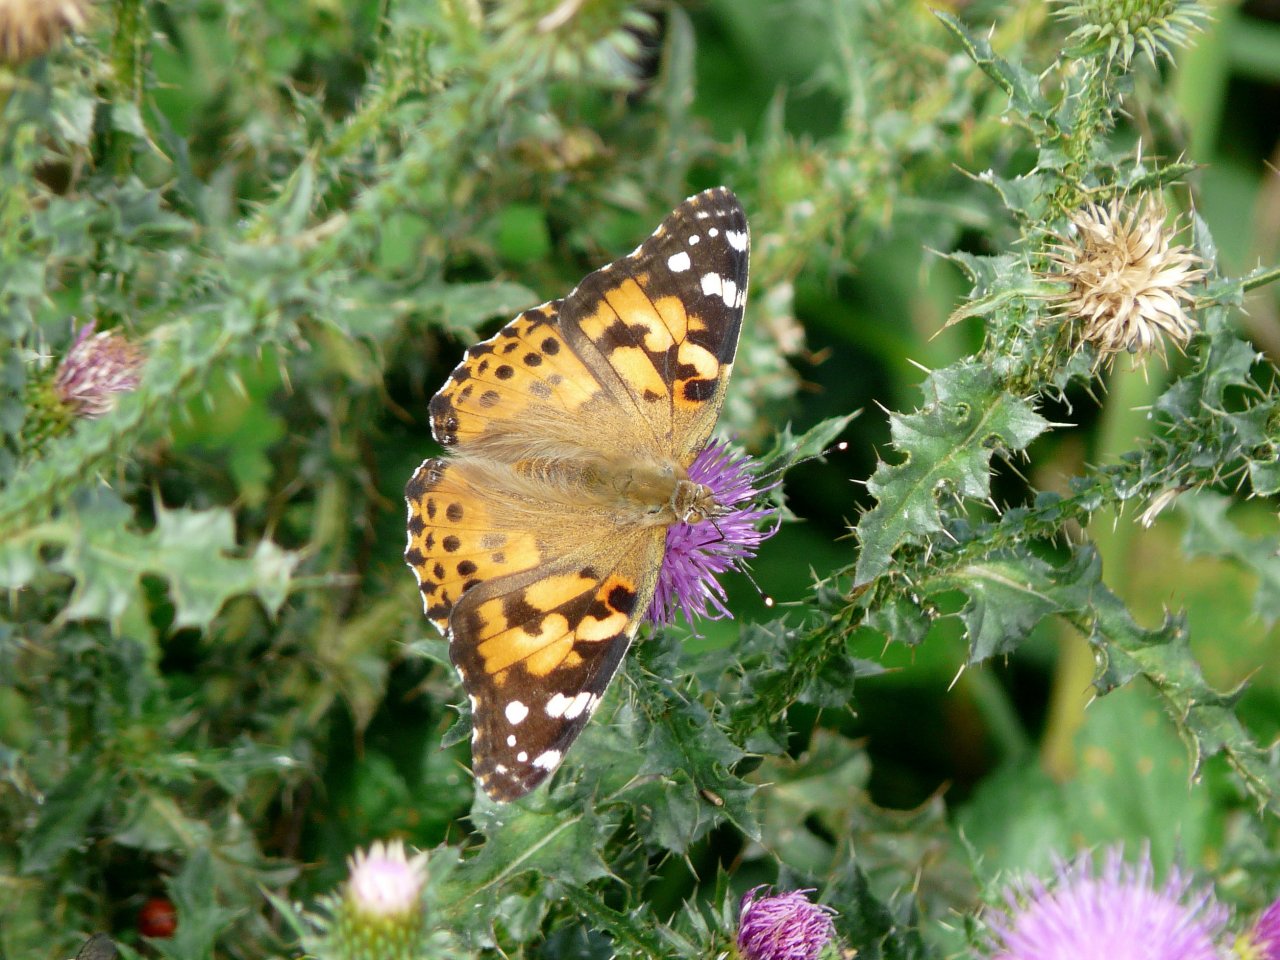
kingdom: Animalia
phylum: Arthropoda
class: Insecta
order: Lepidoptera
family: Nymphalidae
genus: Vanessa
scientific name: Vanessa cardui
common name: Painted Lady
